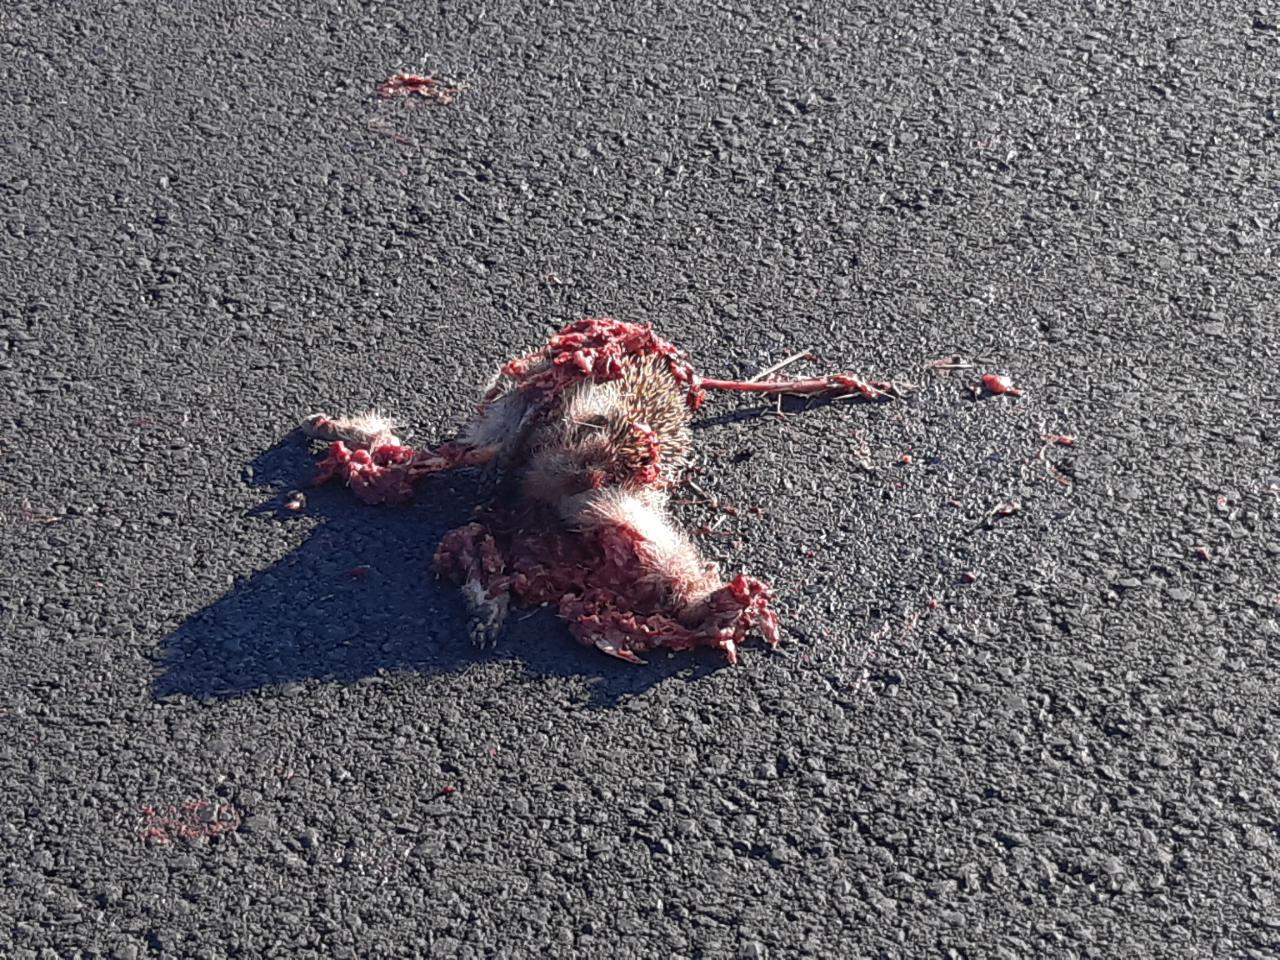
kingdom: Animalia
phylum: Chordata
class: Mammalia
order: Erinaceomorpha
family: Erinaceidae
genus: Erinaceus
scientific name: Erinaceus
